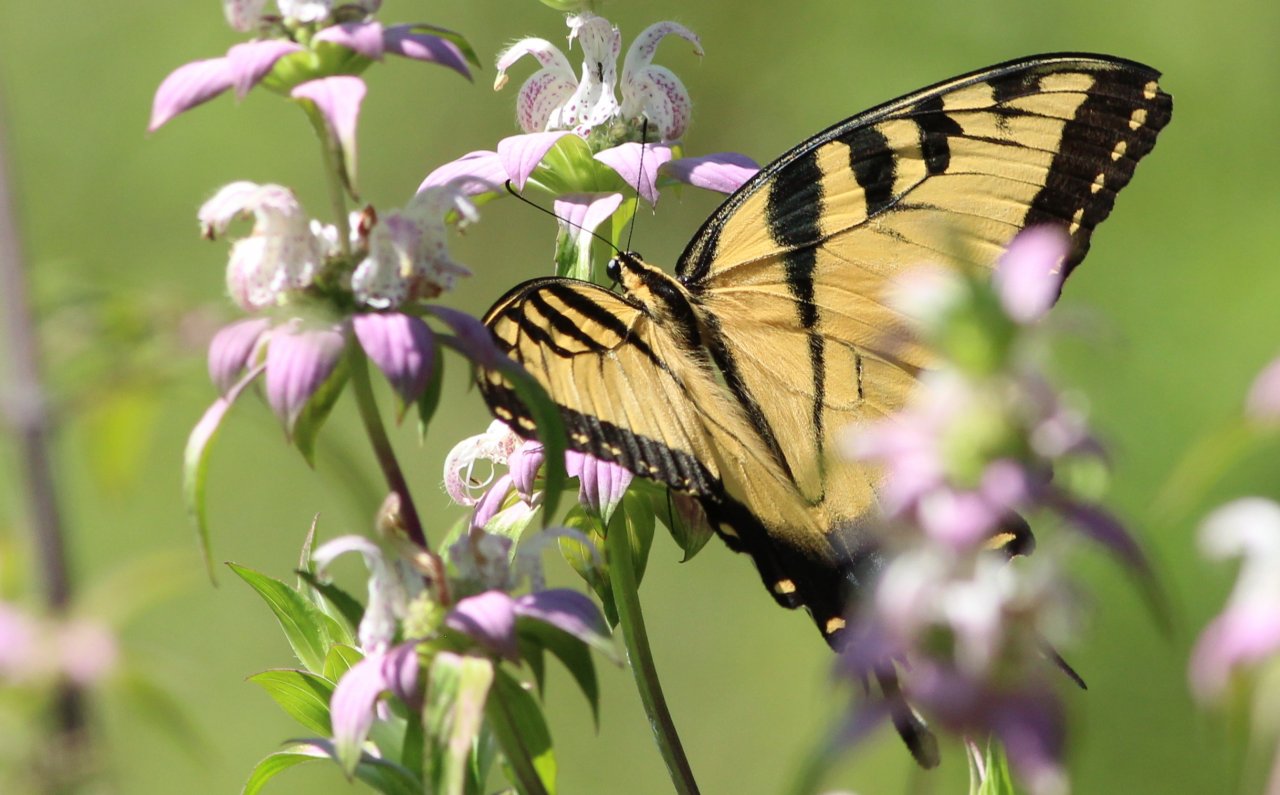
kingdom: Animalia
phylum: Arthropoda
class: Insecta
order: Lepidoptera
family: Papilionidae
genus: Pterourus
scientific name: Pterourus glaucus
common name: Eastern Tiger Swallowtail
